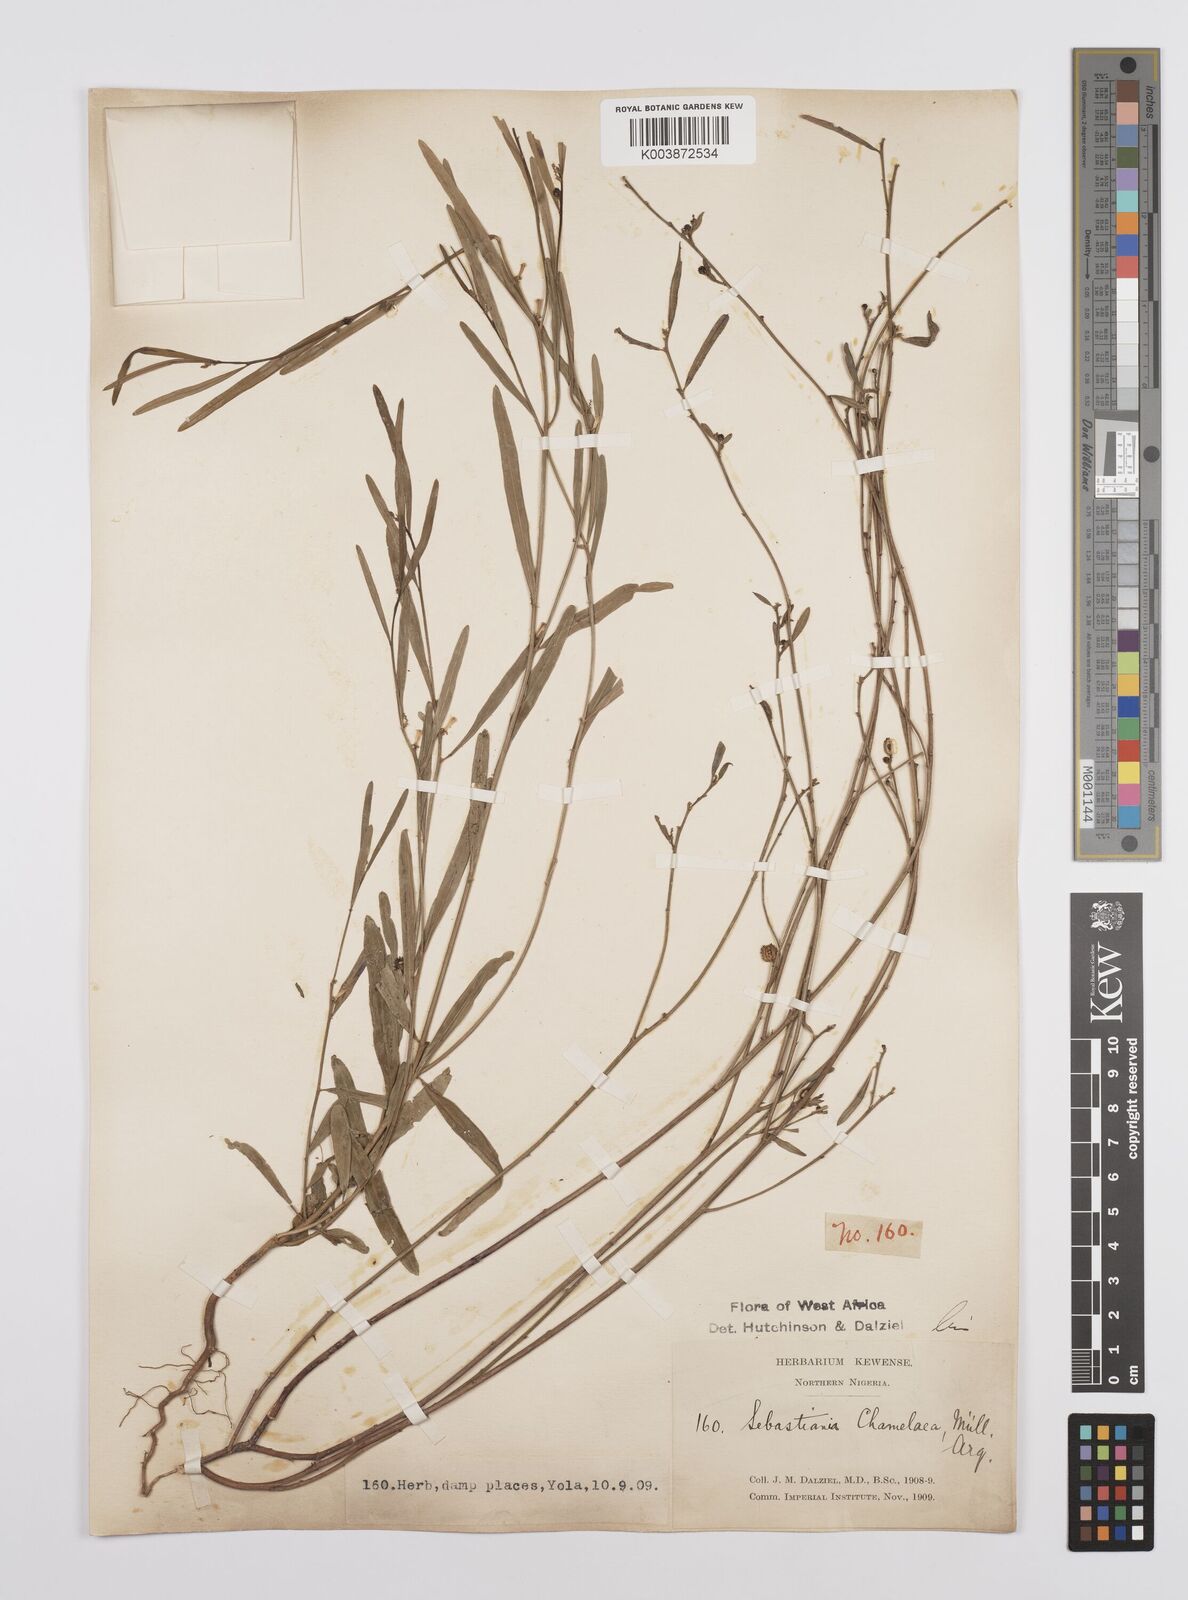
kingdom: Plantae
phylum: Tracheophyta
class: Magnoliopsida
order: Malpighiales
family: Euphorbiaceae
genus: Microstachys
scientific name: Microstachys chamaelea
